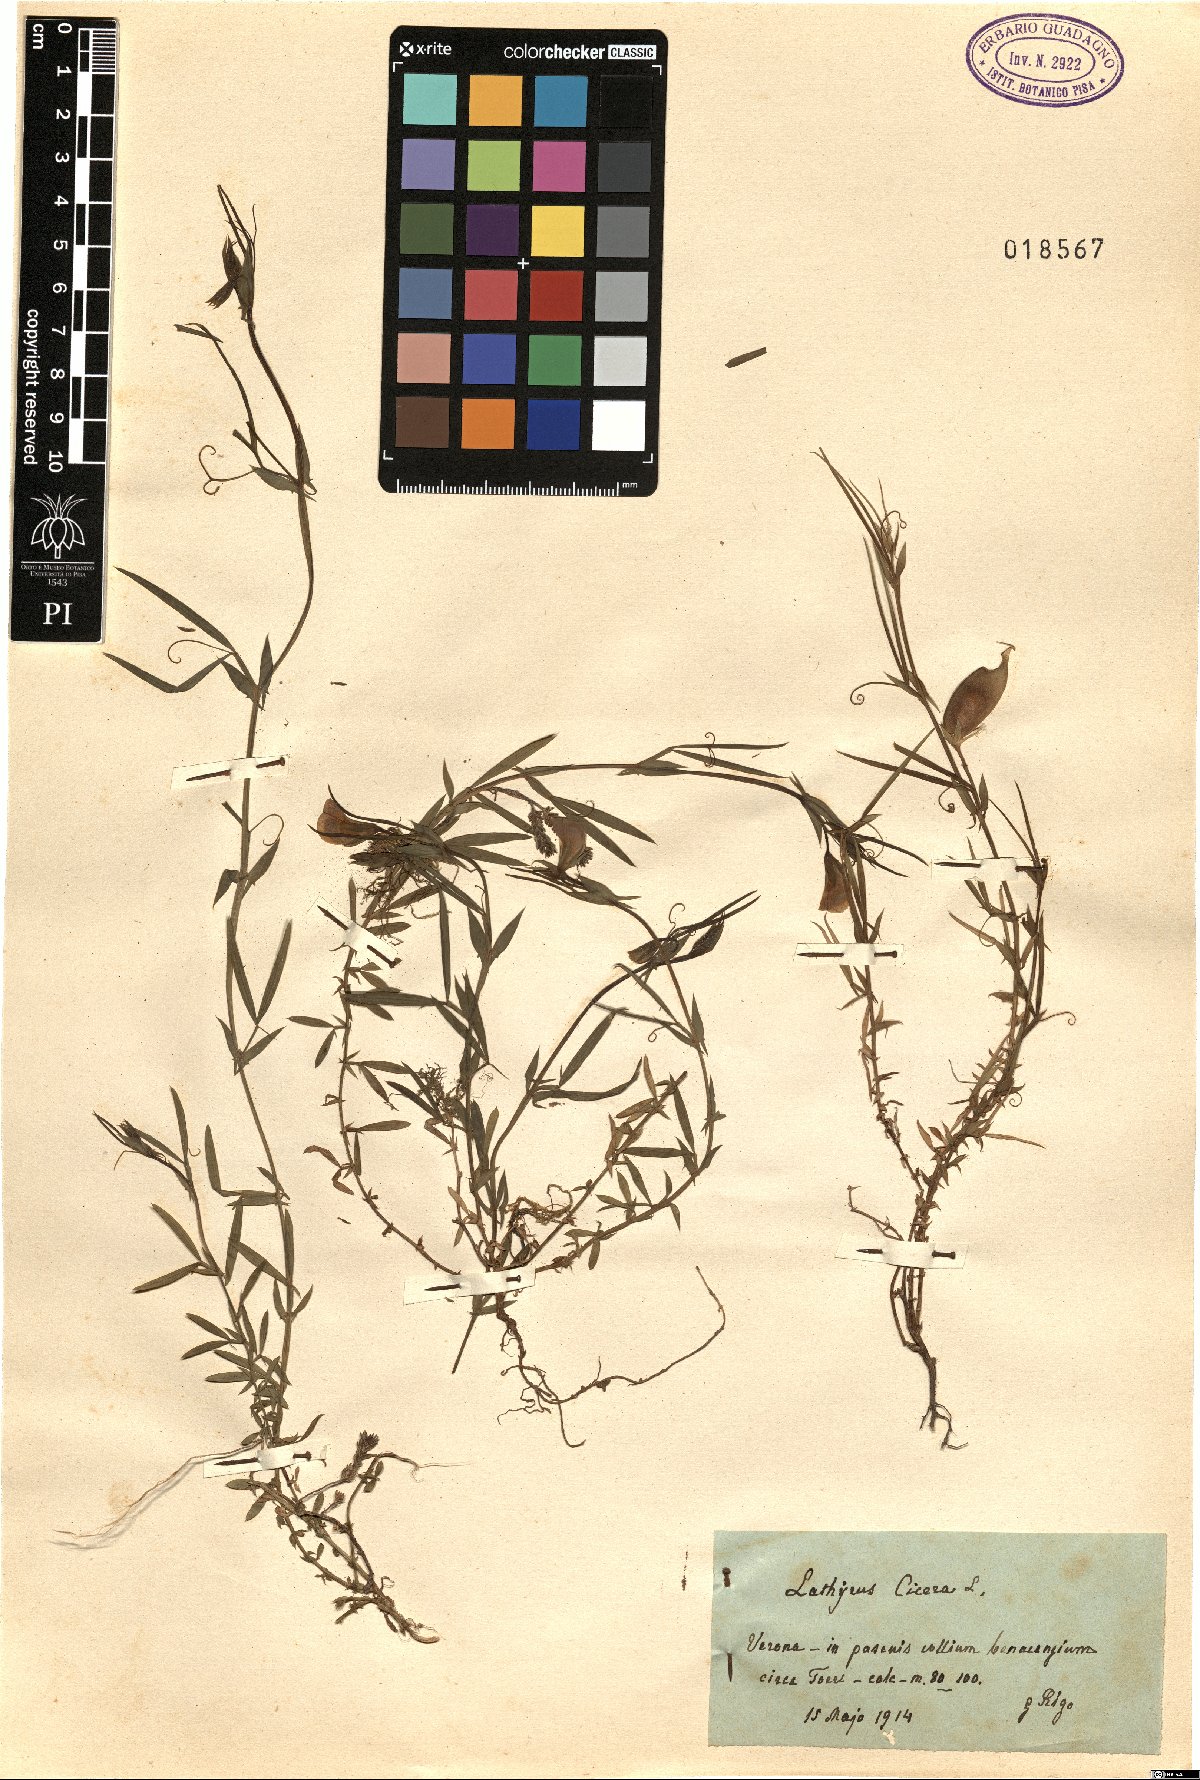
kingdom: Plantae
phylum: Tracheophyta
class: Magnoliopsida
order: Fabales
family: Fabaceae
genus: Lathyrus
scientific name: Lathyrus annuus
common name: Fodder pea
